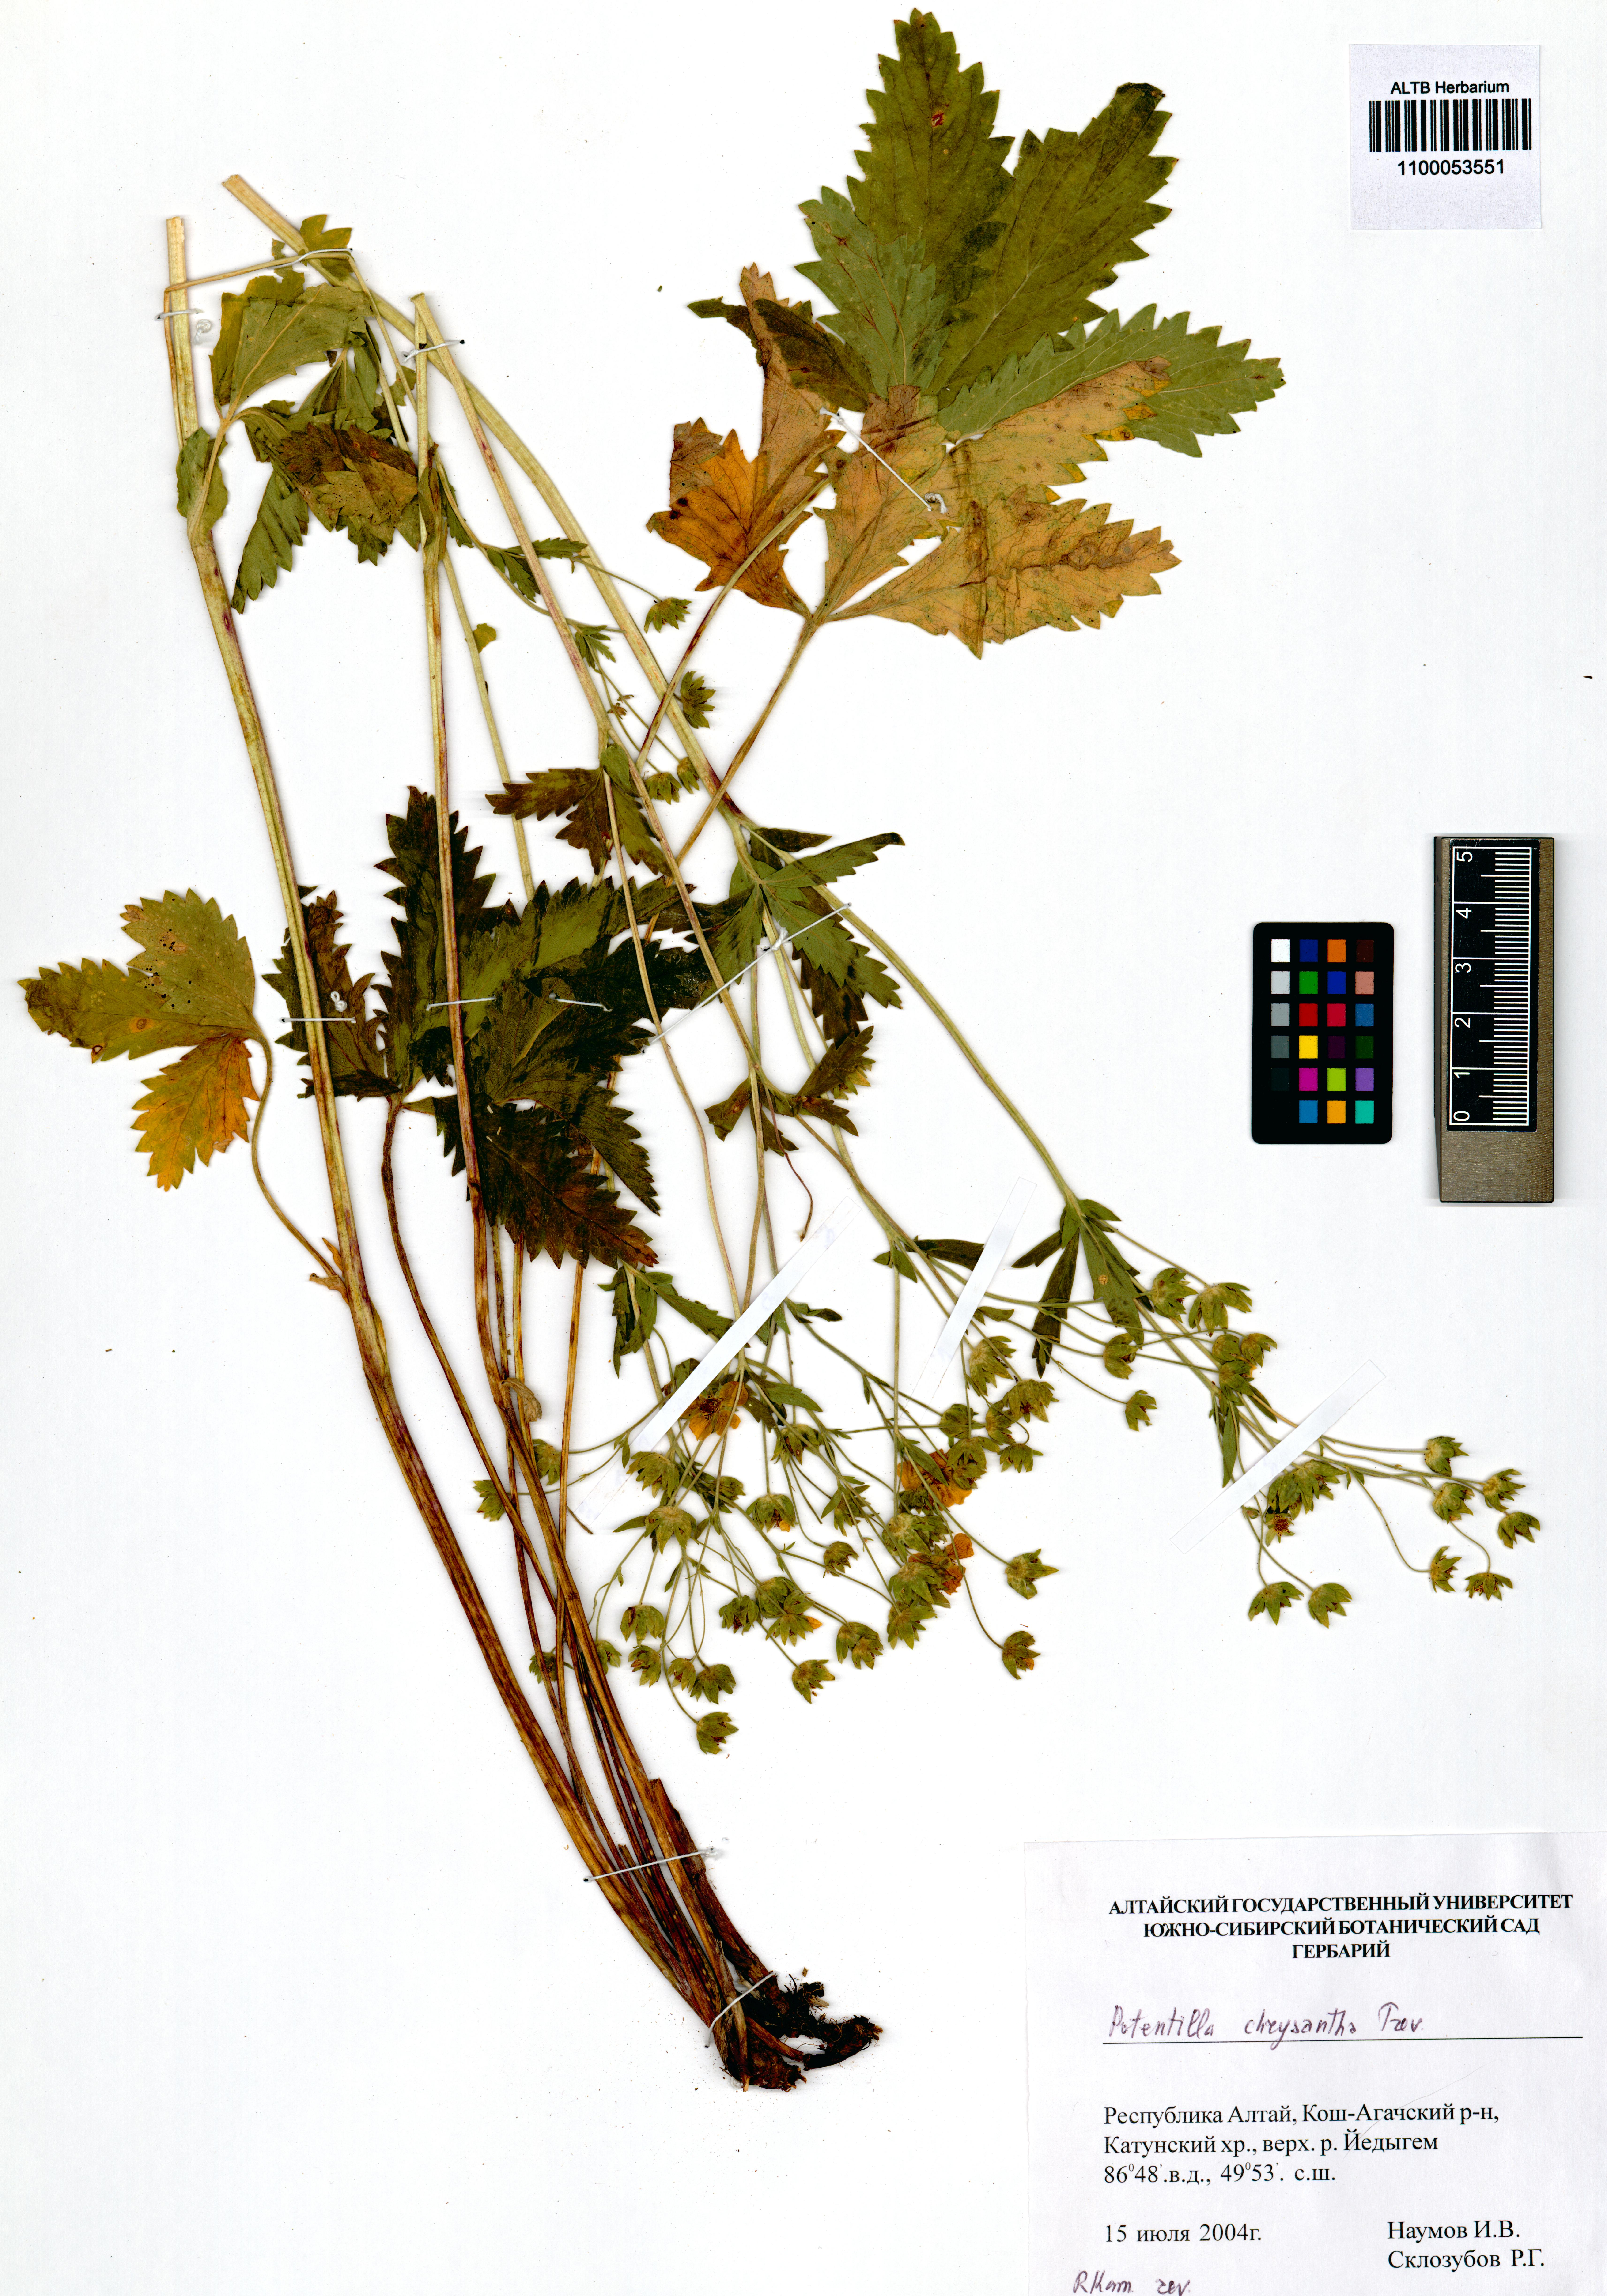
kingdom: Plantae
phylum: Tracheophyta
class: Magnoliopsida
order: Rosales
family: Rosaceae
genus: Potentilla
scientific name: Potentilla chrysantha
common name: Thuringian cinquefoil
